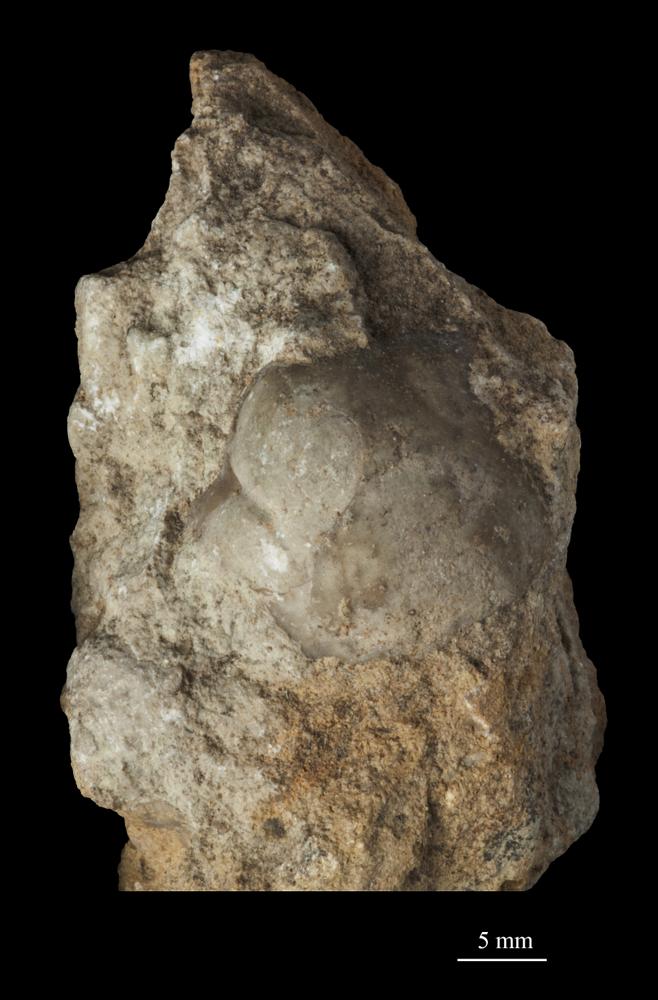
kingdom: Animalia
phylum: Arthropoda
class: Trilobita
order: Corynexochida
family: Illaenidae
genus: Illaenus
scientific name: Illaenus
